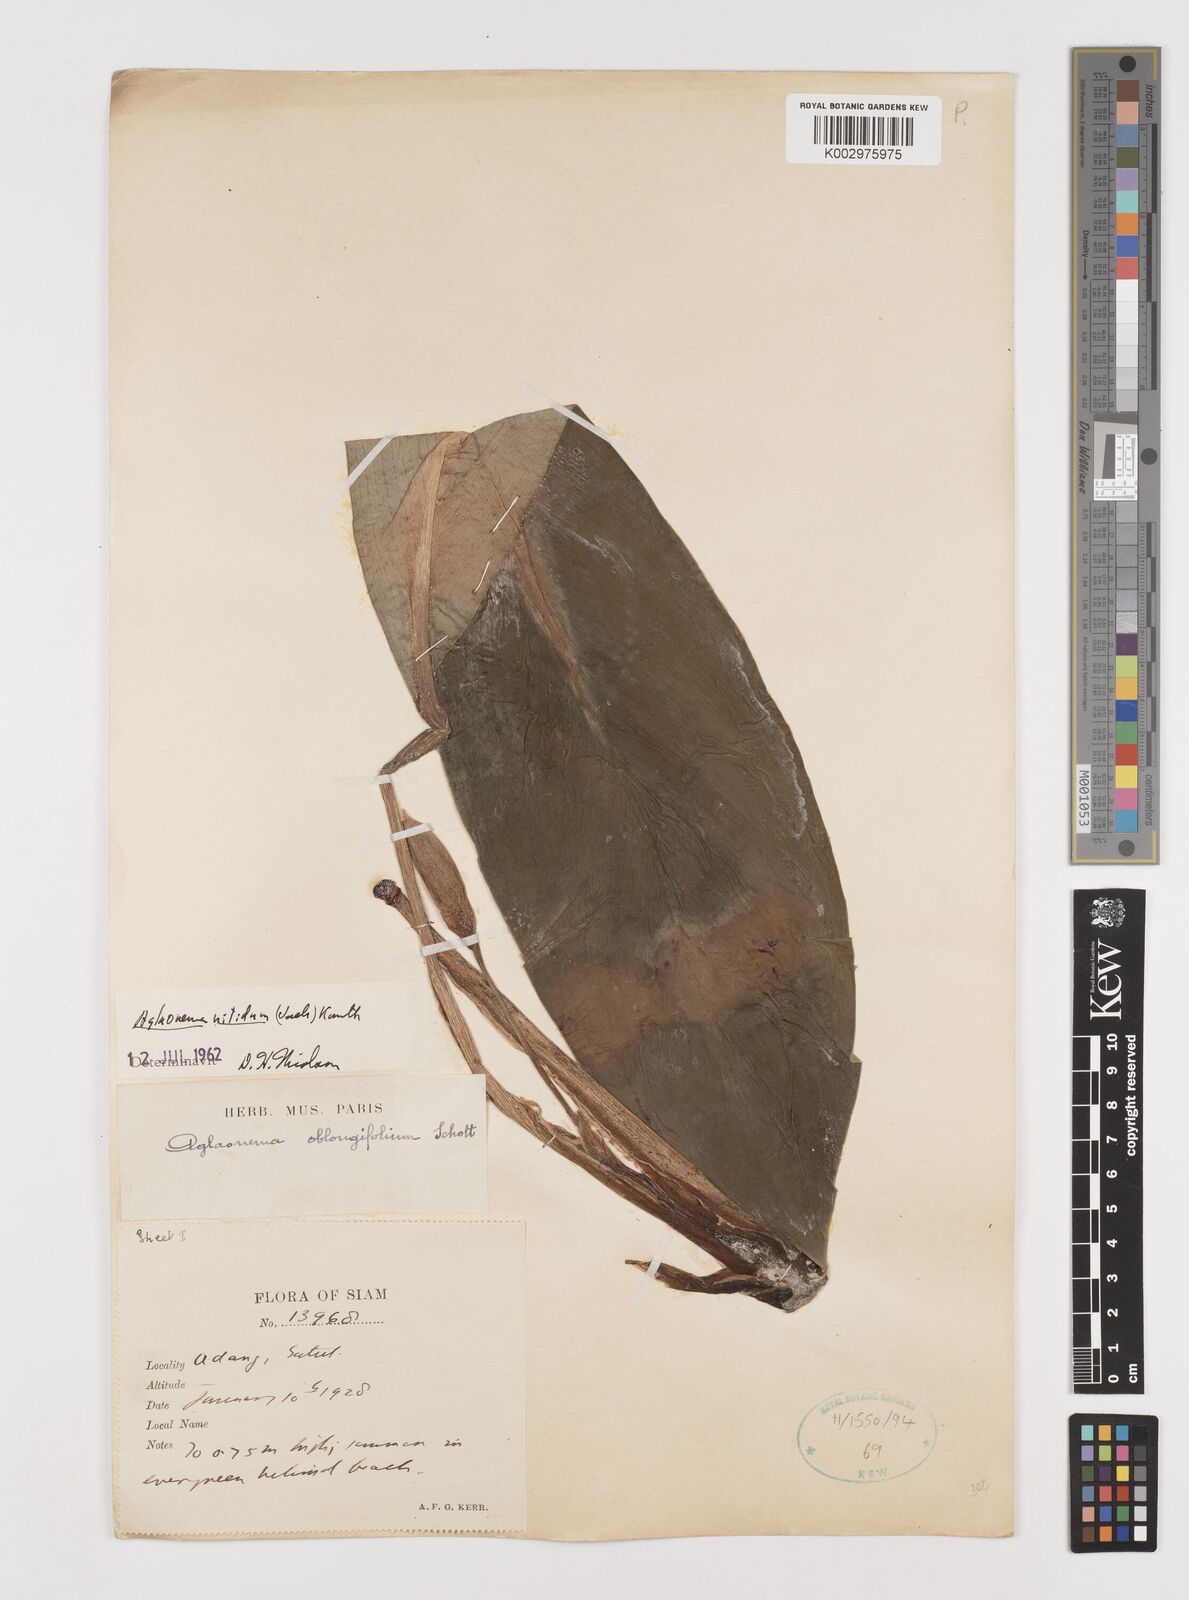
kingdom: Plantae
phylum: Tracheophyta
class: Liliopsida
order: Alismatales
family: Araceae
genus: Aglaonema
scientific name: Aglaonema nitidum
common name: Aglaonema aroid
